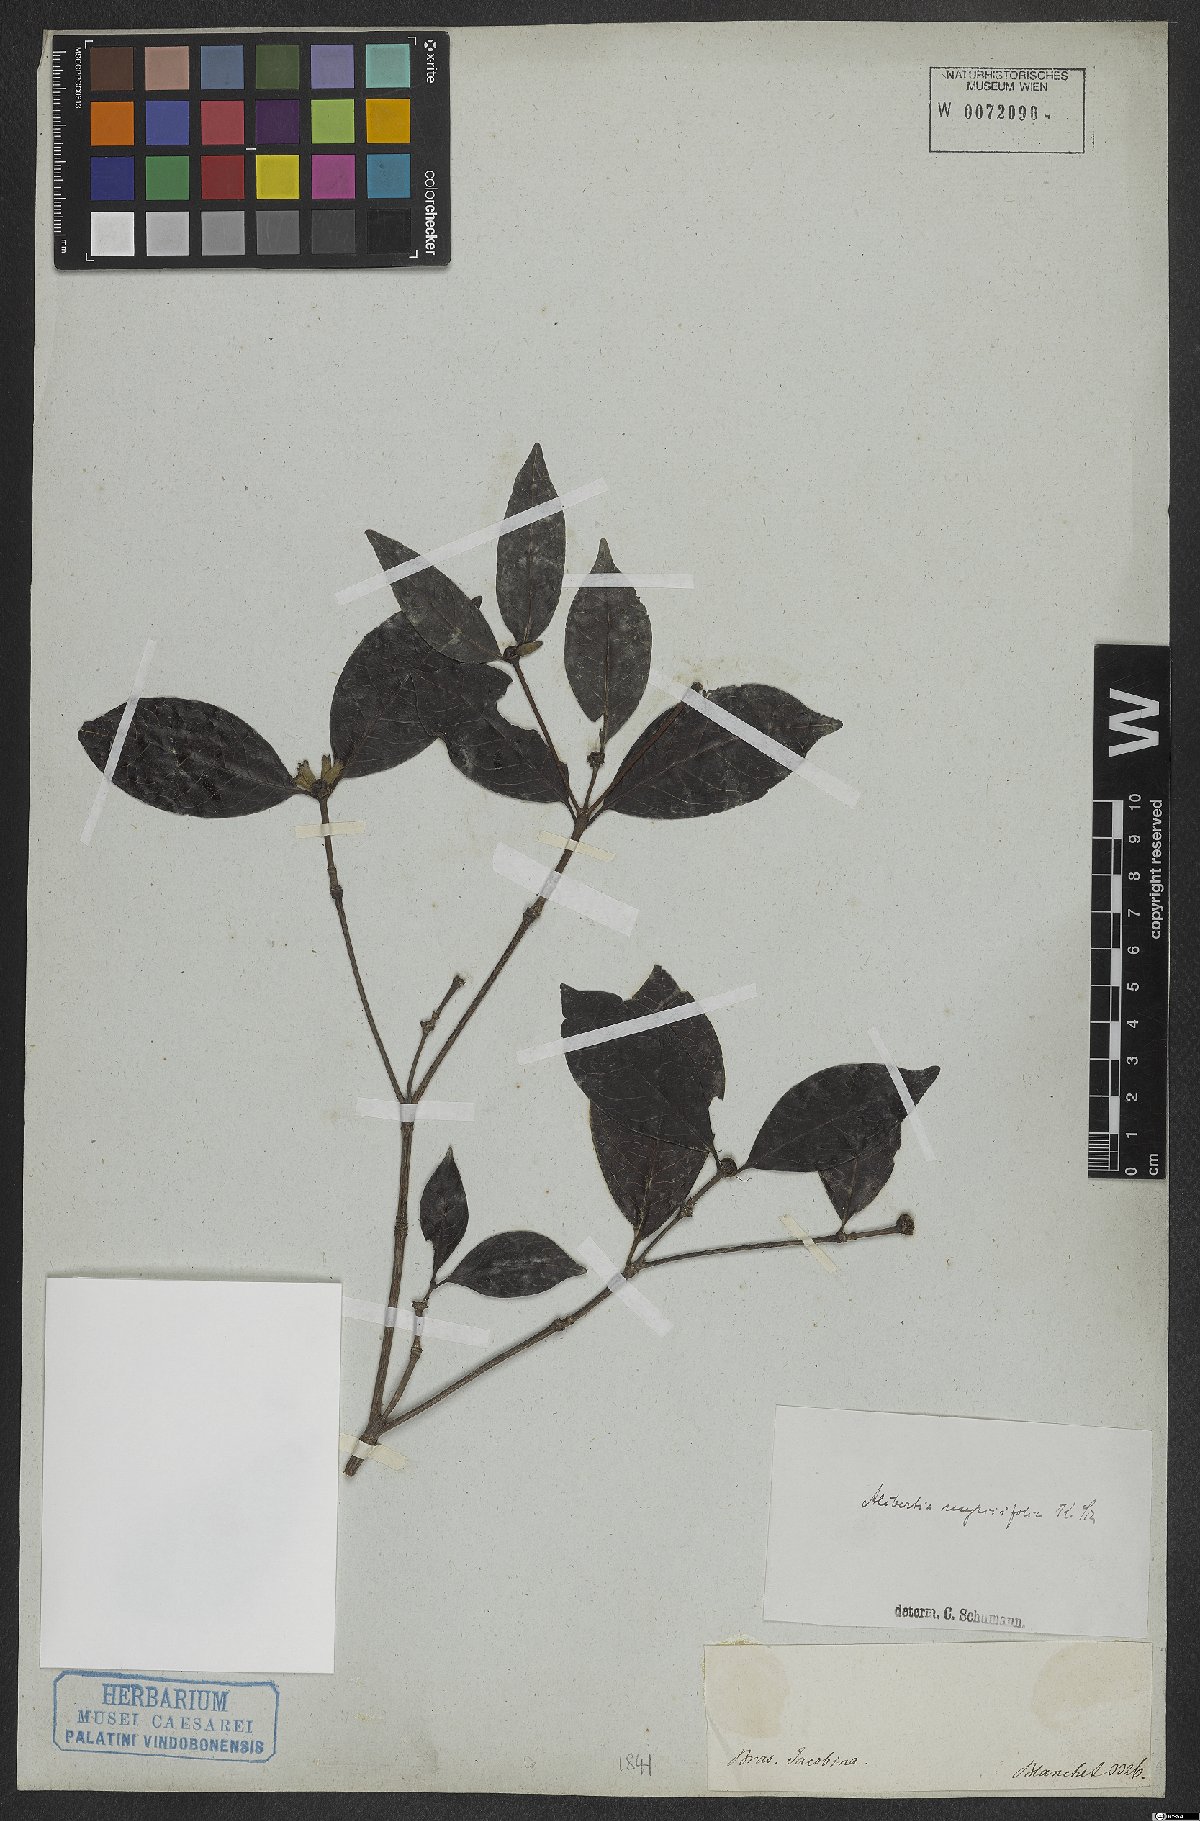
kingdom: Plantae
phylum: Tracheophyta
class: Magnoliopsida
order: Gentianales
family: Rubiaceae
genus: Cordiera
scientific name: Cordiera myrciifolia
